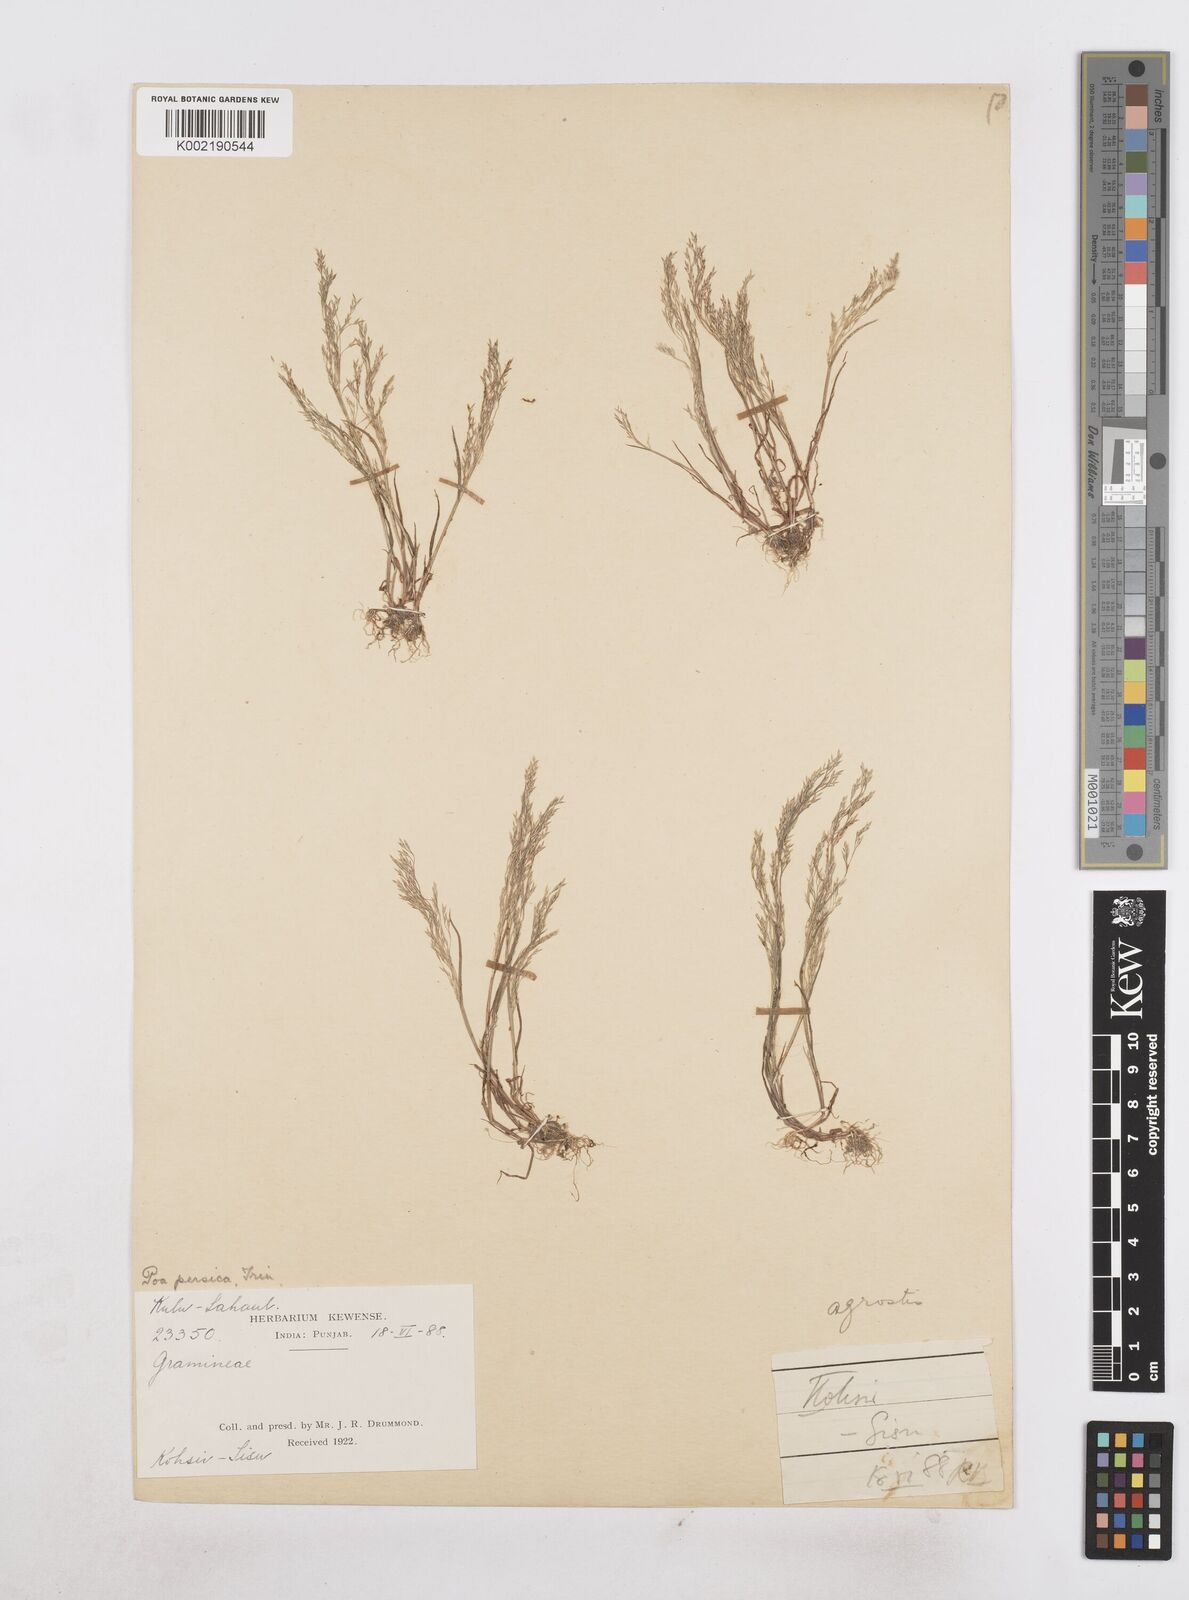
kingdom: Plantae
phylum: Tracheophyta
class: Liliopsida
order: Poales
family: Poaceae
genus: Poa
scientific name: Poa diaphora
